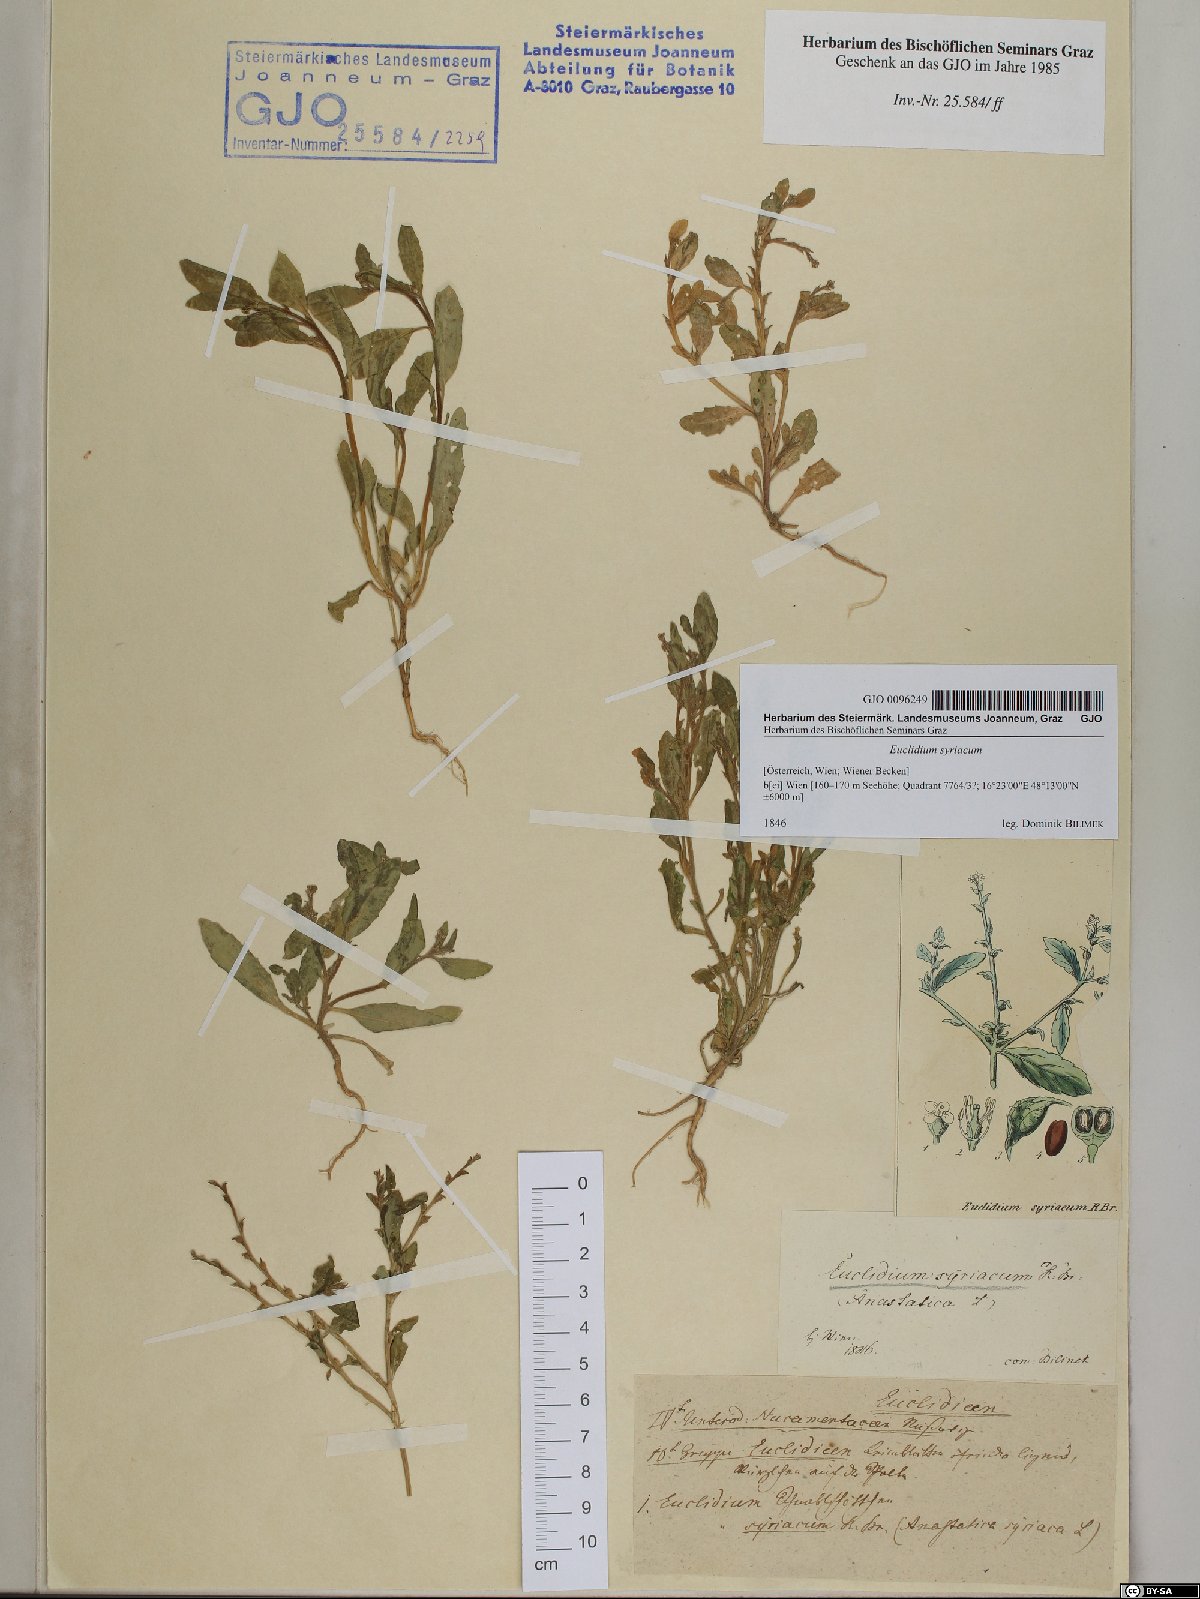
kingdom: Plantae
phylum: Tracheophyta
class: Magnoliopsida
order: Brassicales
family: Brassicaceae
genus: Euclidium
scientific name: Euclidium syriacum
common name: Syrian mustard
